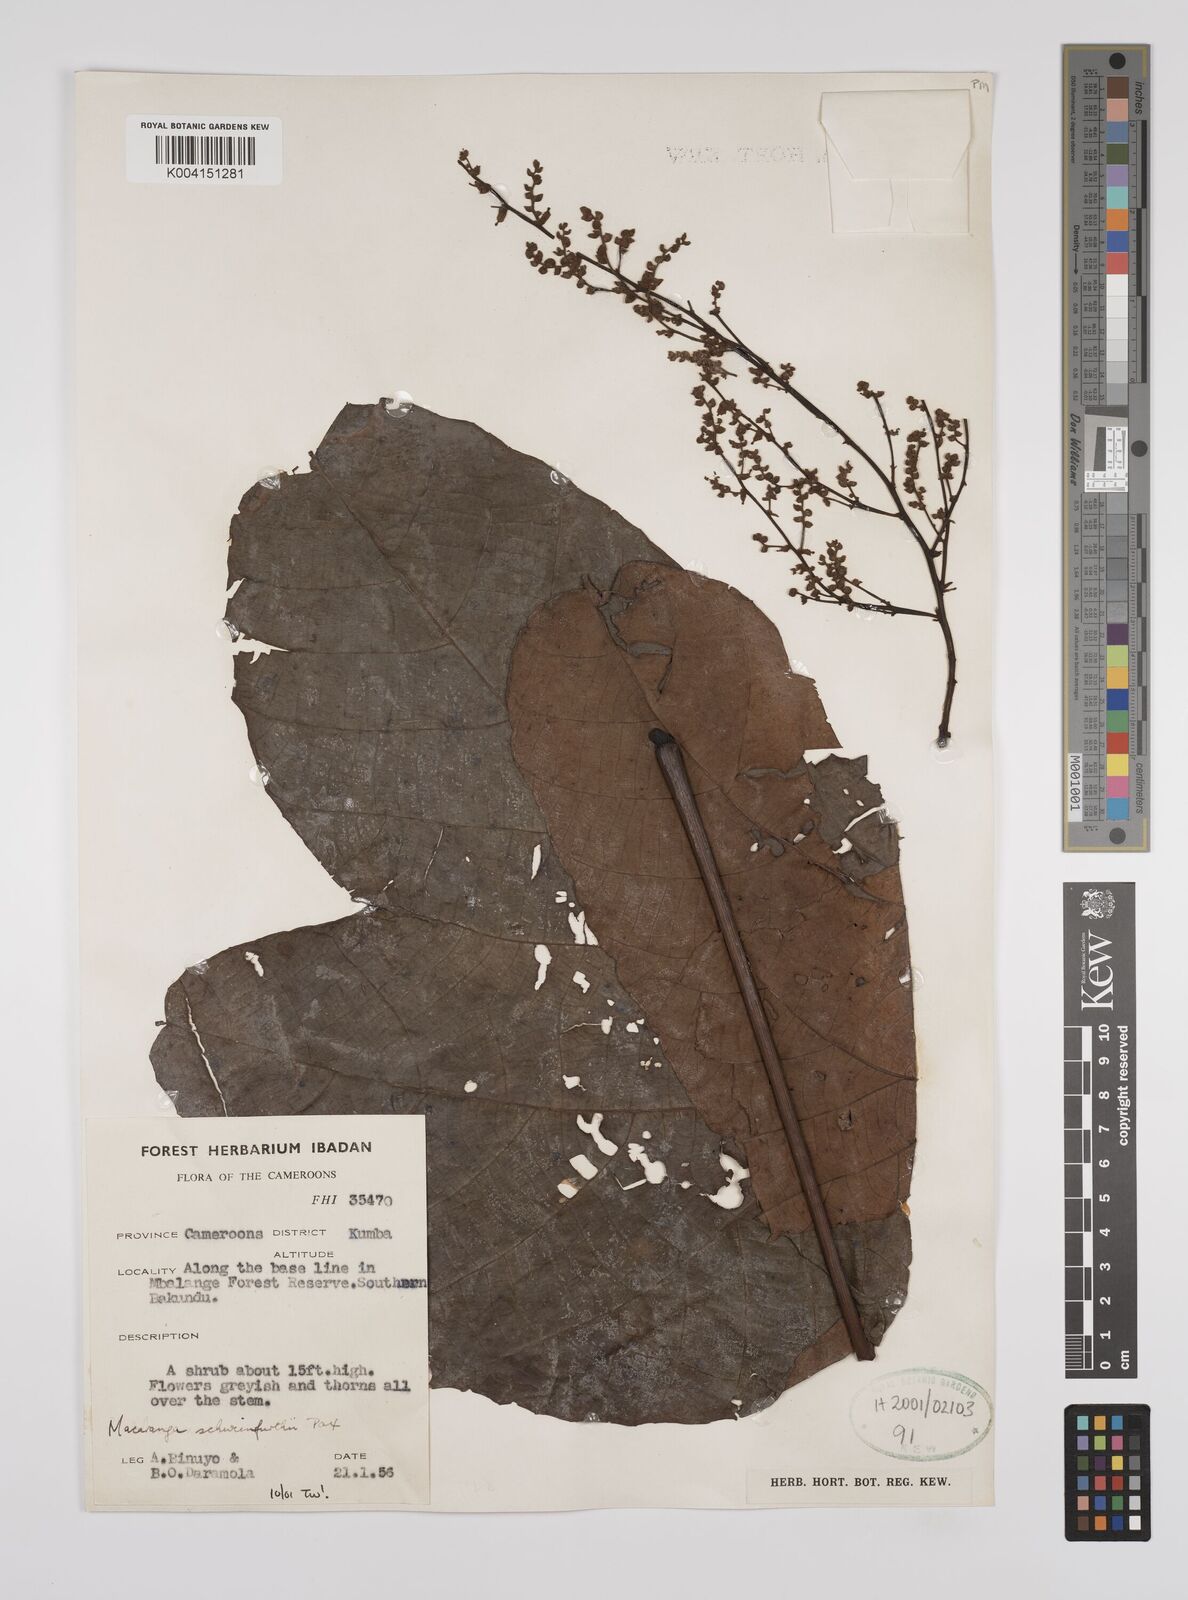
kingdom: Plantae
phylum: Tracheophyta
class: Magnoliopsida
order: Malpighiales
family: Euphorbiaceae
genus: Macaranga
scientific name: Macaranga schweinfurthii
